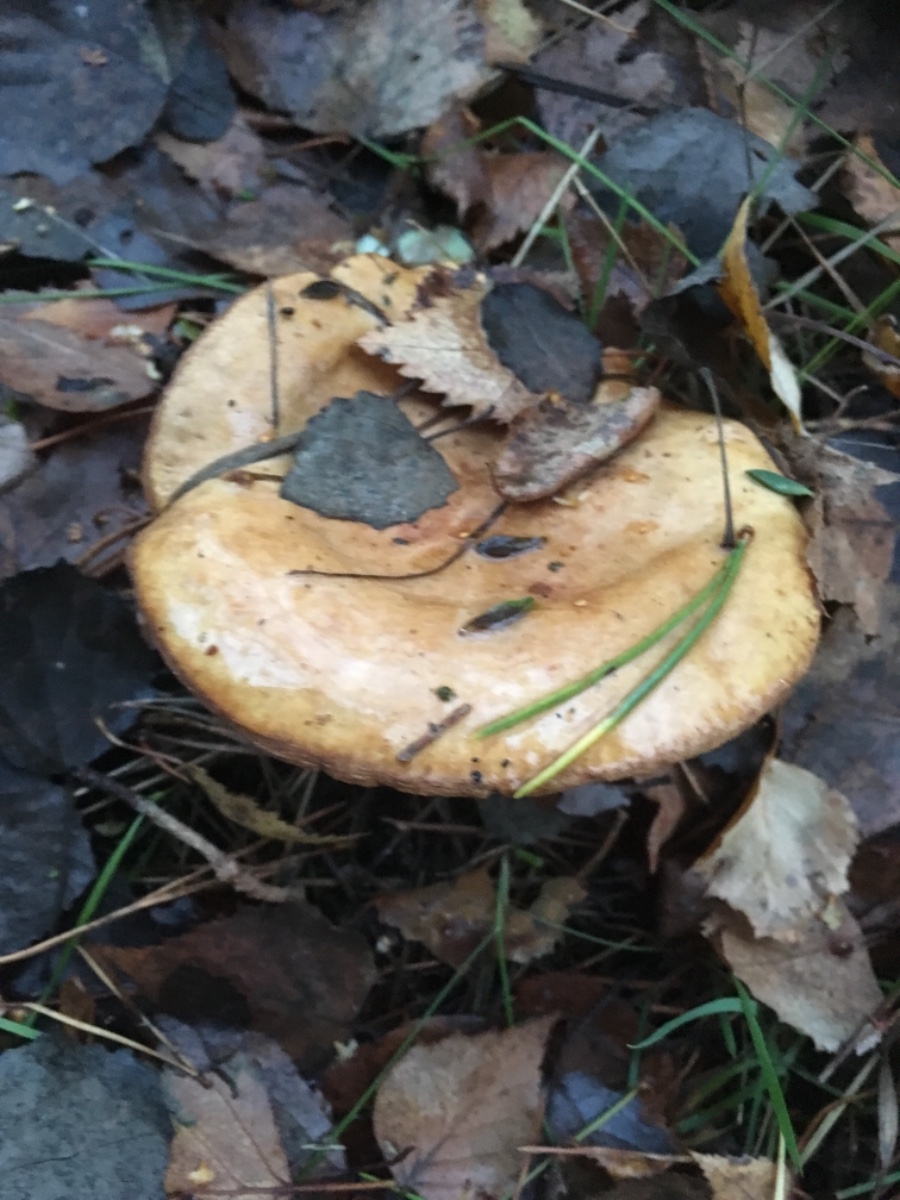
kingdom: Fungi
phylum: Basidiomycota
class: Agaricomycetes
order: Boletales
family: Paxillaceae
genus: Paxillus
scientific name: Paxillus involutus
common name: almindelig netbladhat
